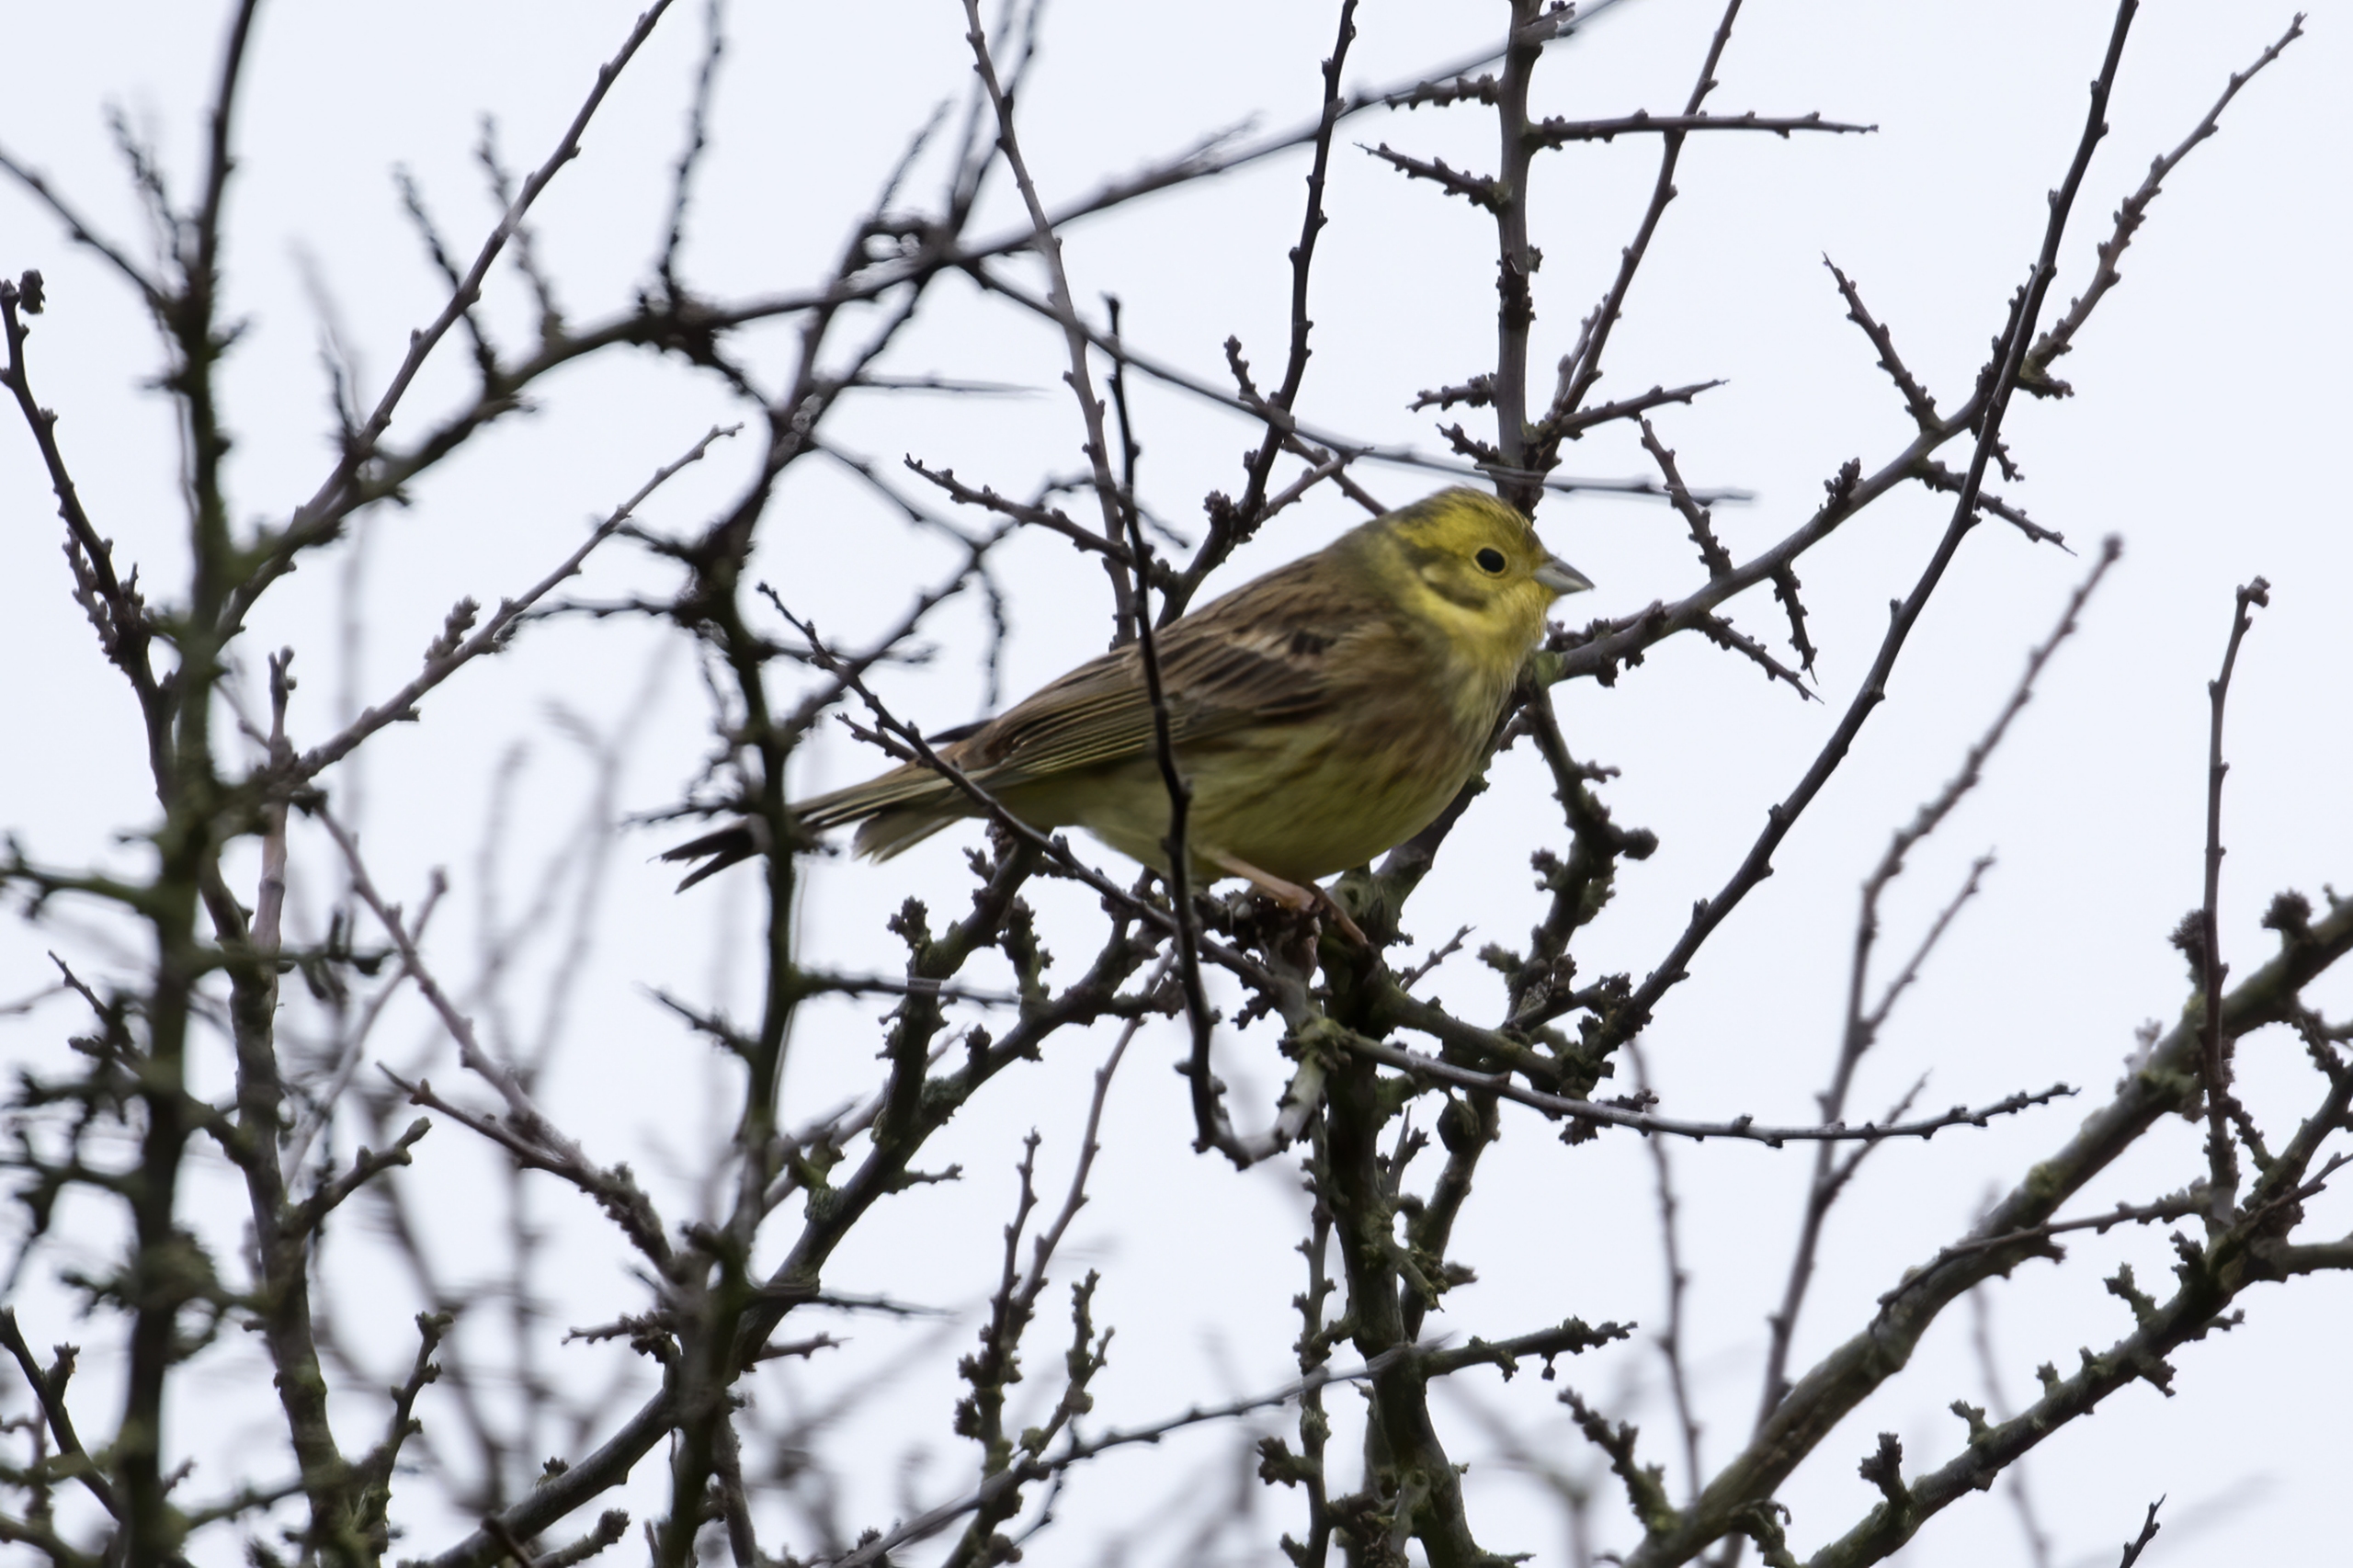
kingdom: Animalia
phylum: Chordata
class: Aves
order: Passeriformes
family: Emberizidae
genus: Emberiza
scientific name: Emberiza citrinella
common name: Gulspurv
